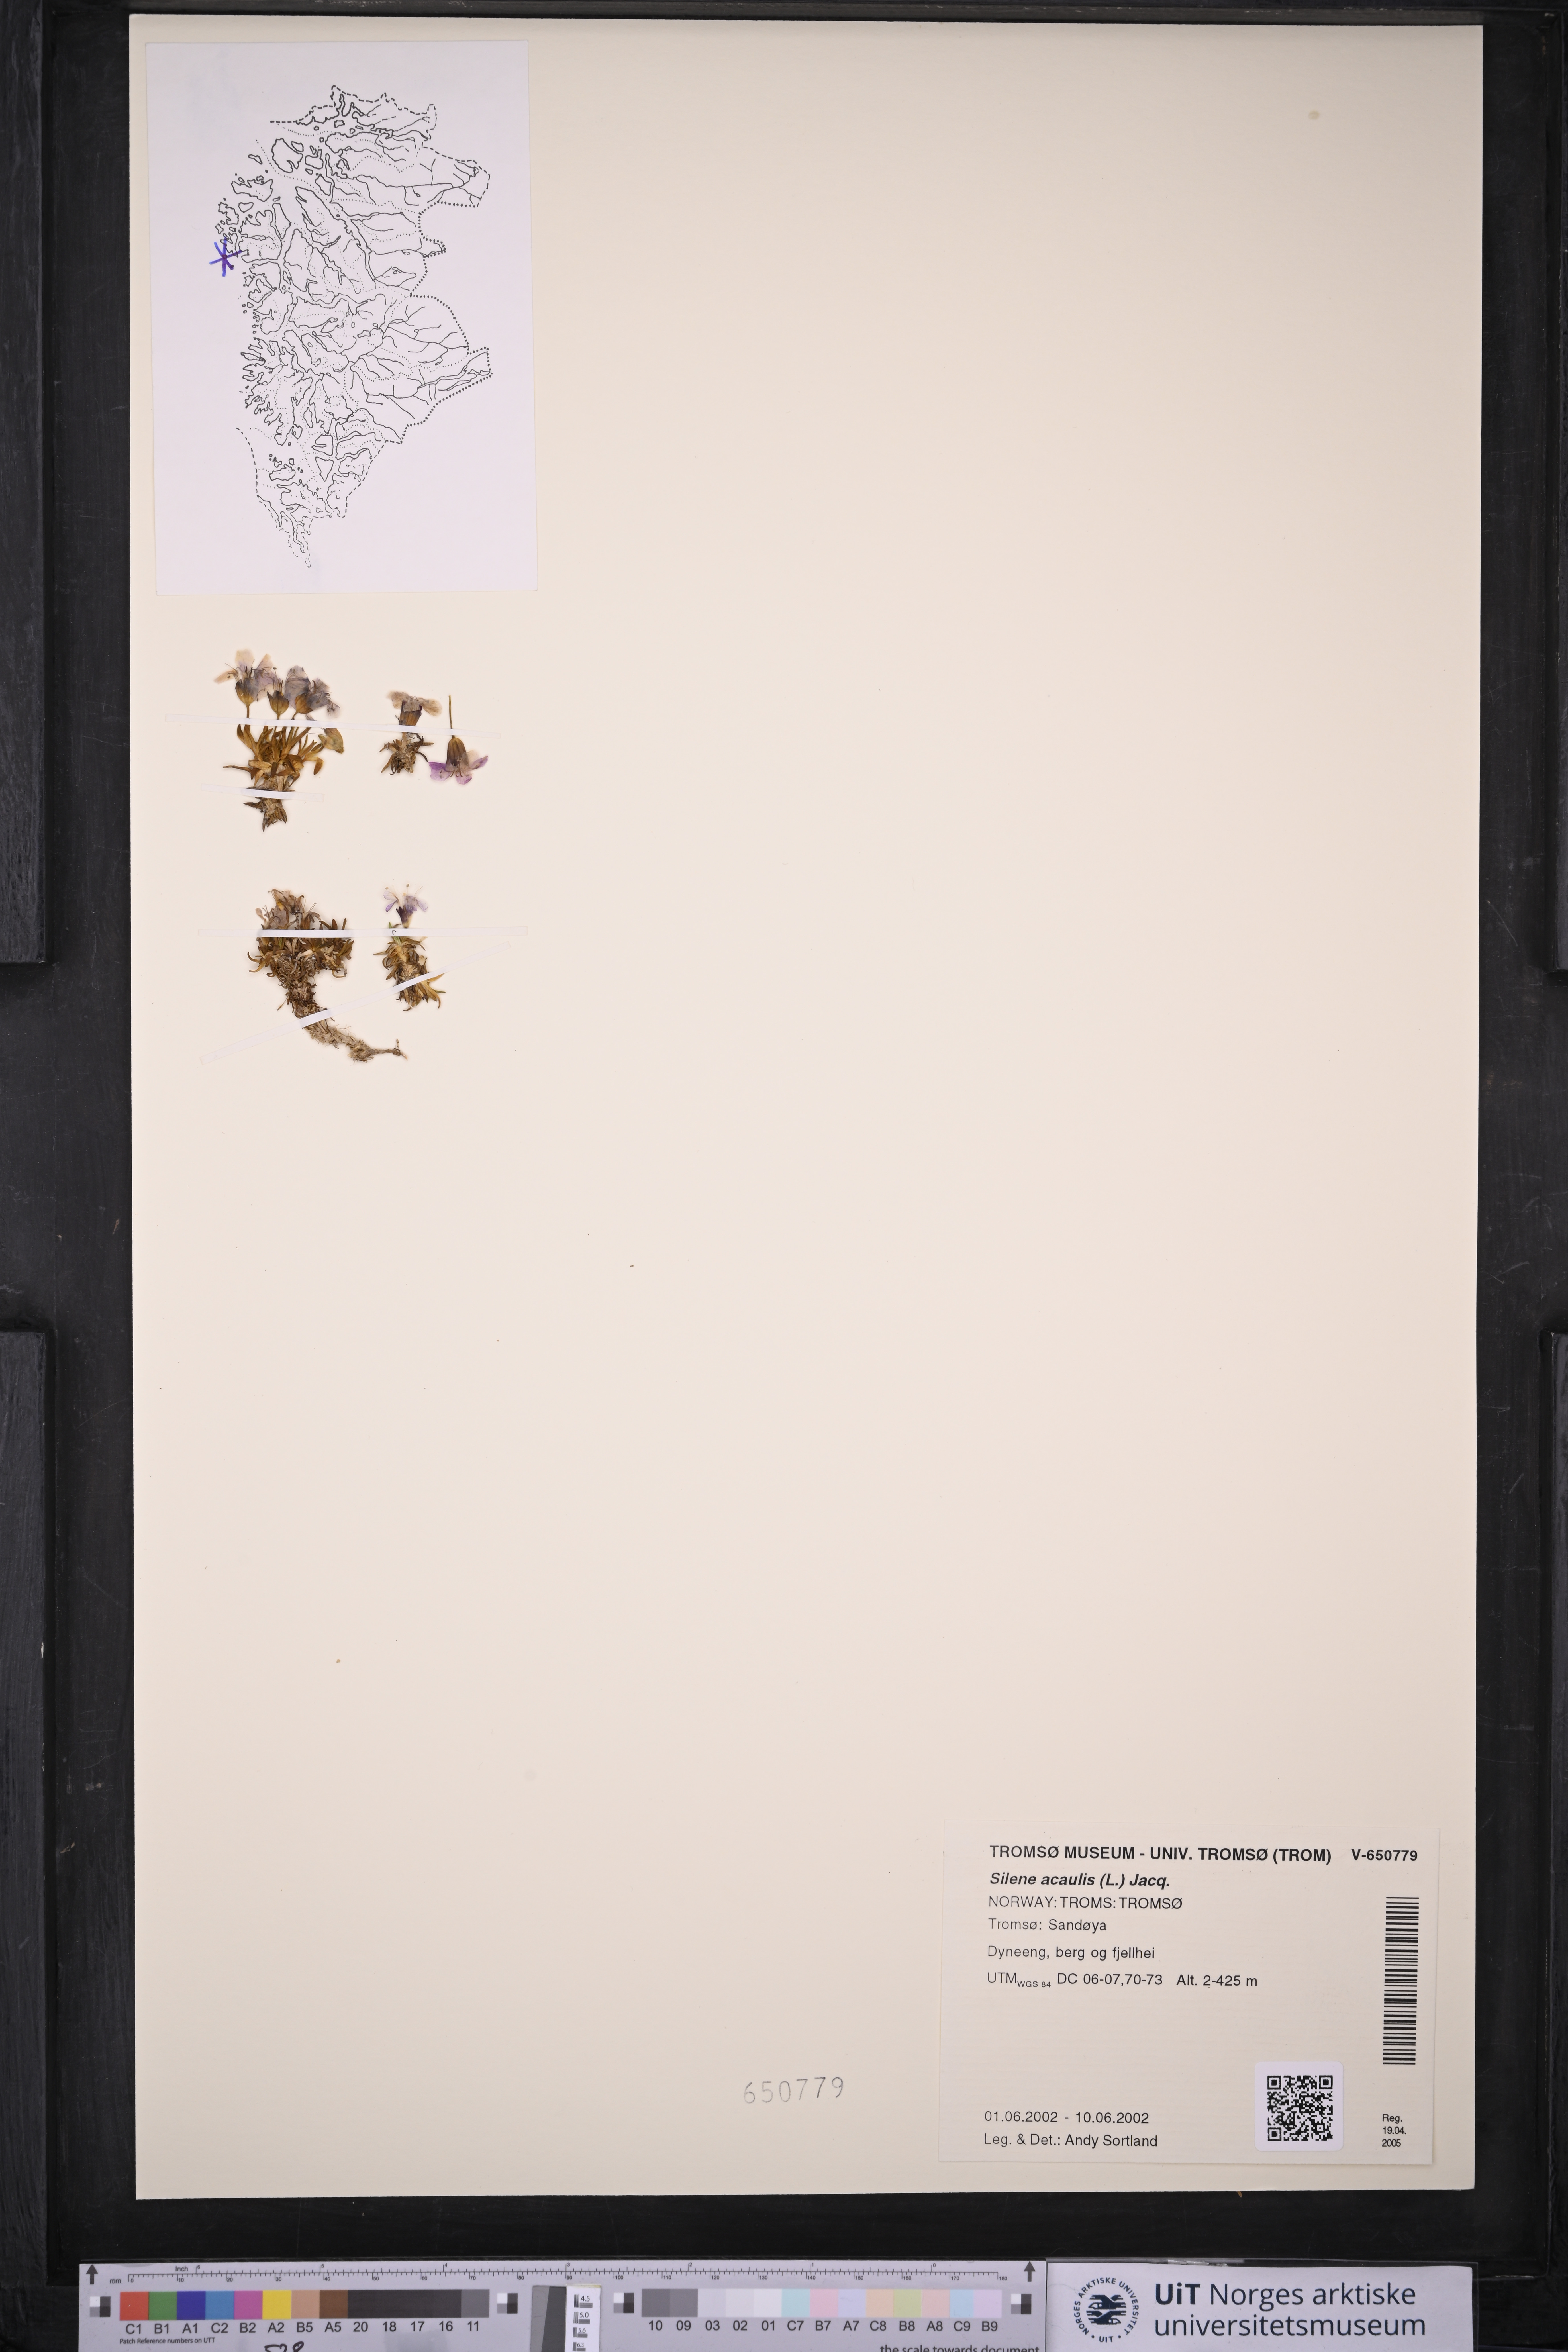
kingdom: Plantae
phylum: Tracheophyta
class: Magnoliopsida
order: Caryophyllales
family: Caryophyllaceae
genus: Silene
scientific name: Silene acaulis
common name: Moss campion
